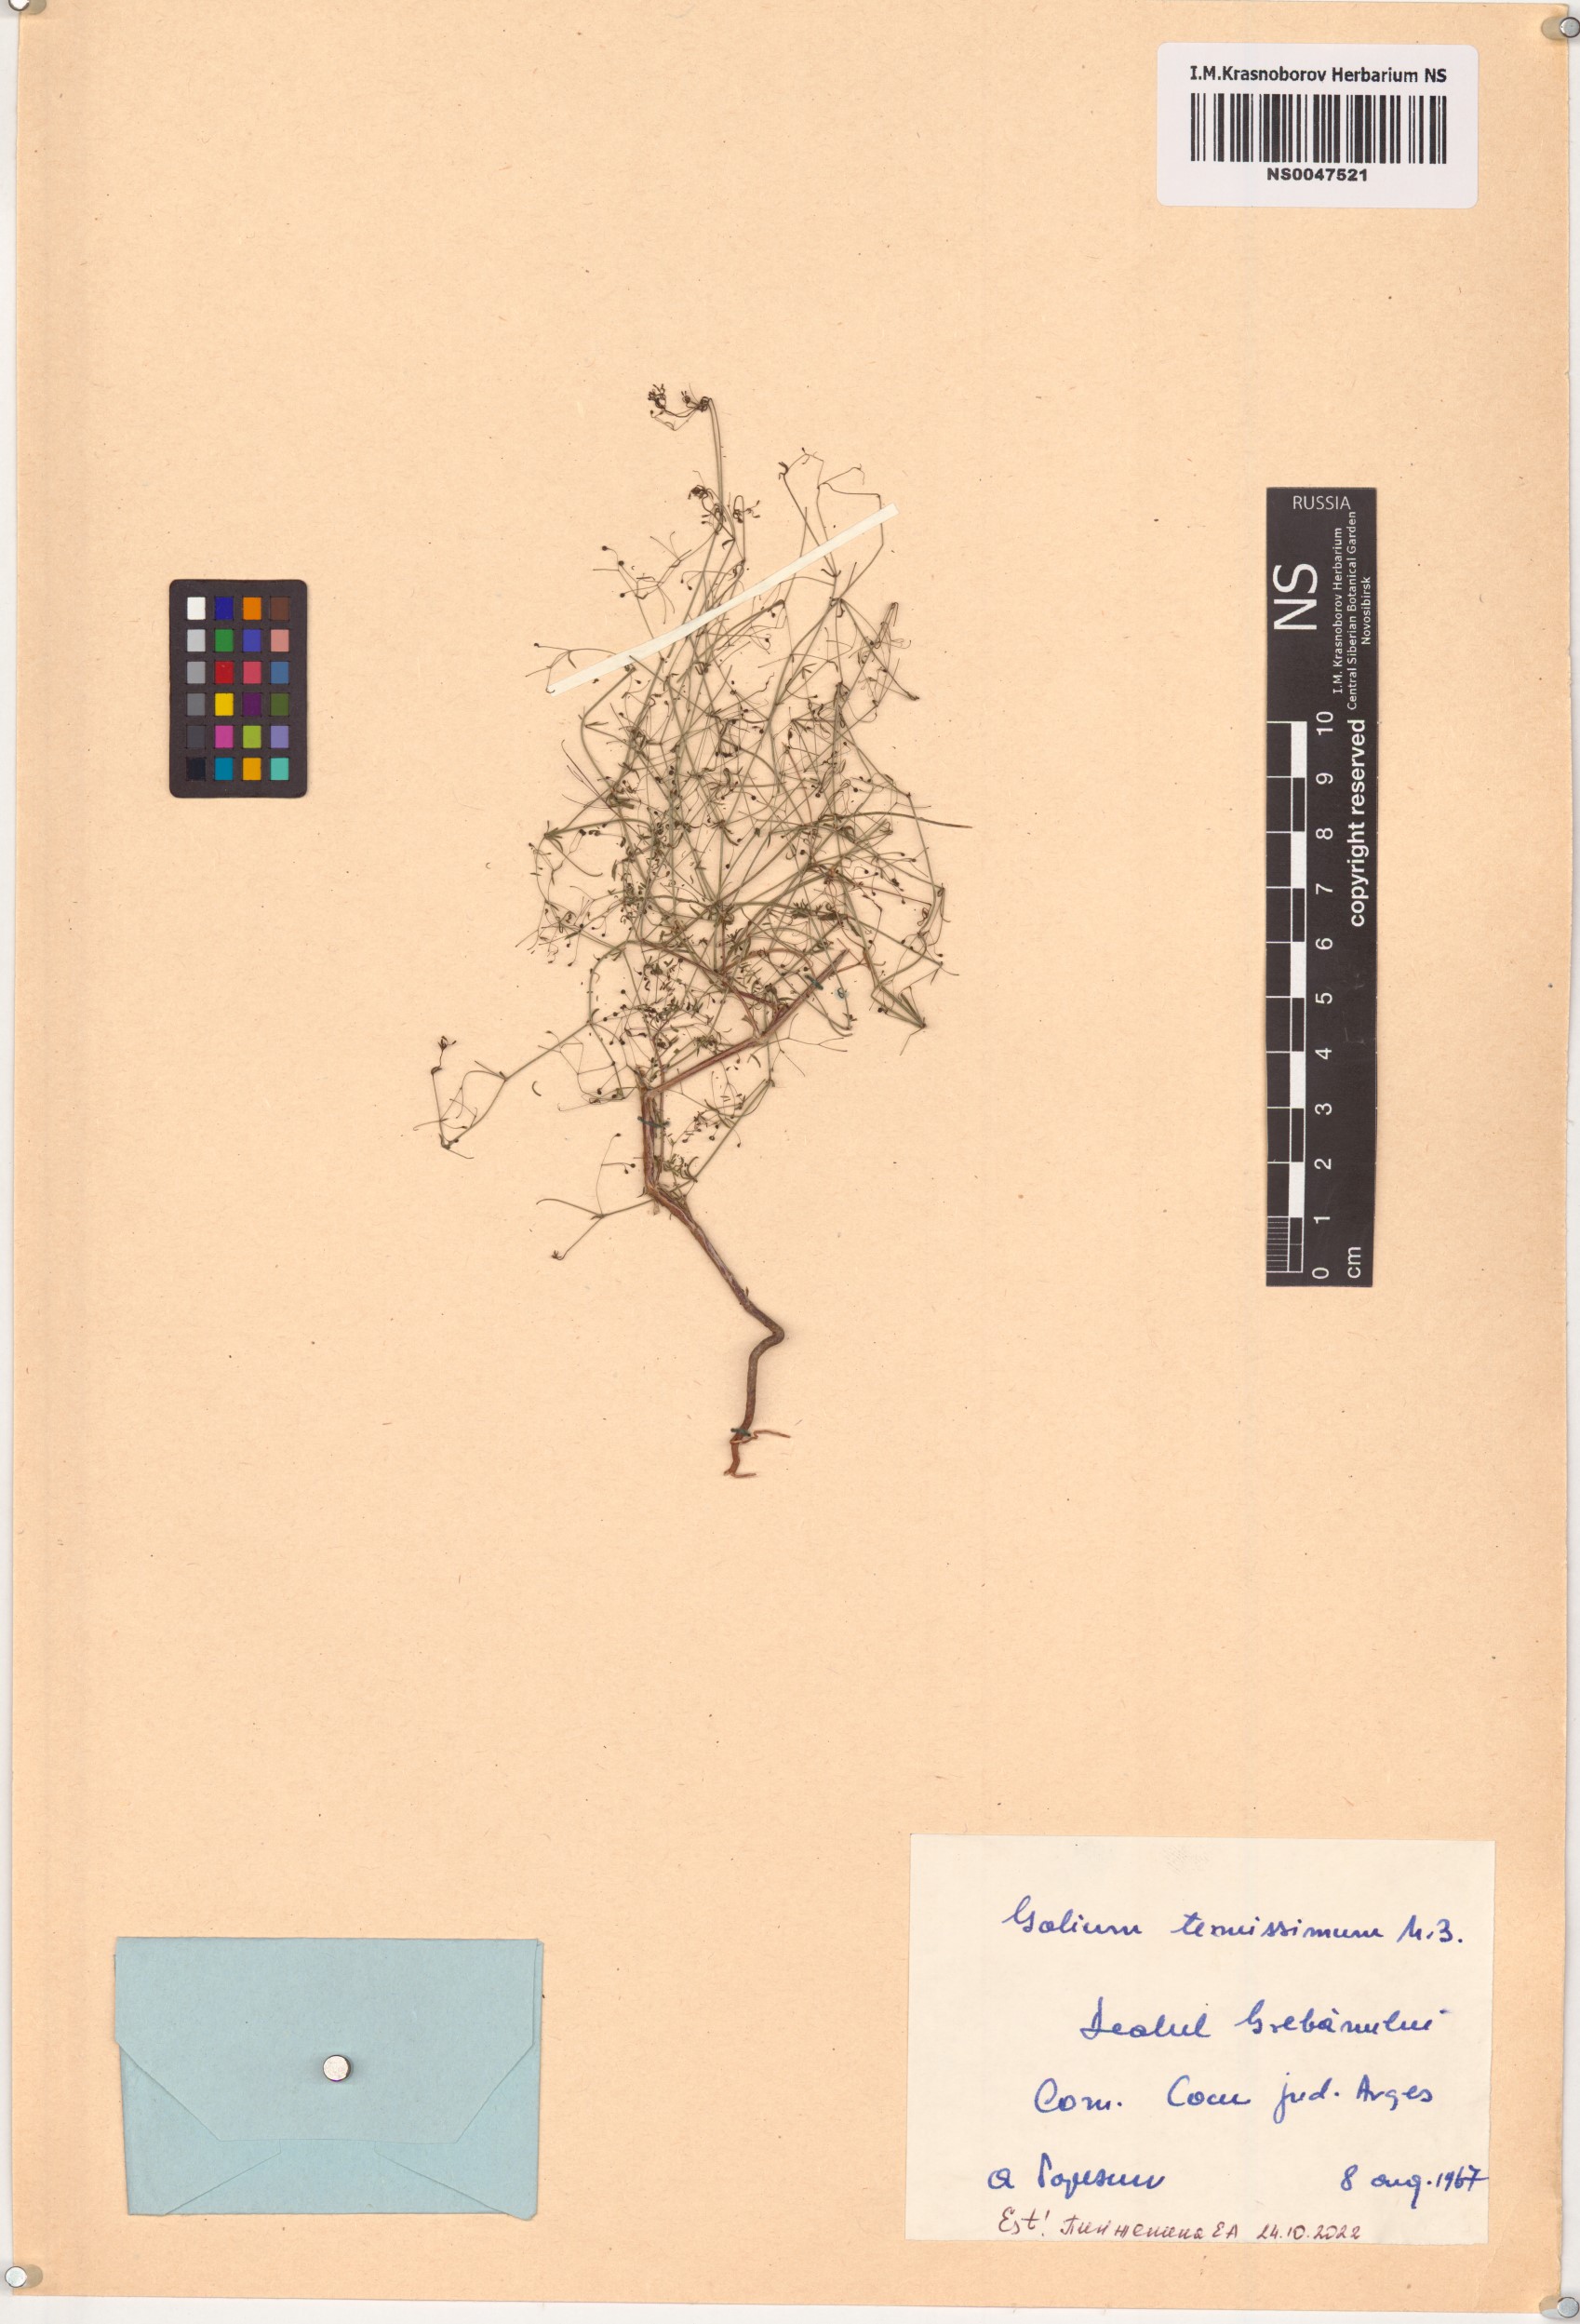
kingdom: Plantae
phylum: Tracheophyta
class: Magnoliopsida
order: Gentianales
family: Rubiaceae
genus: Galium
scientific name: Galium tenuissimum
